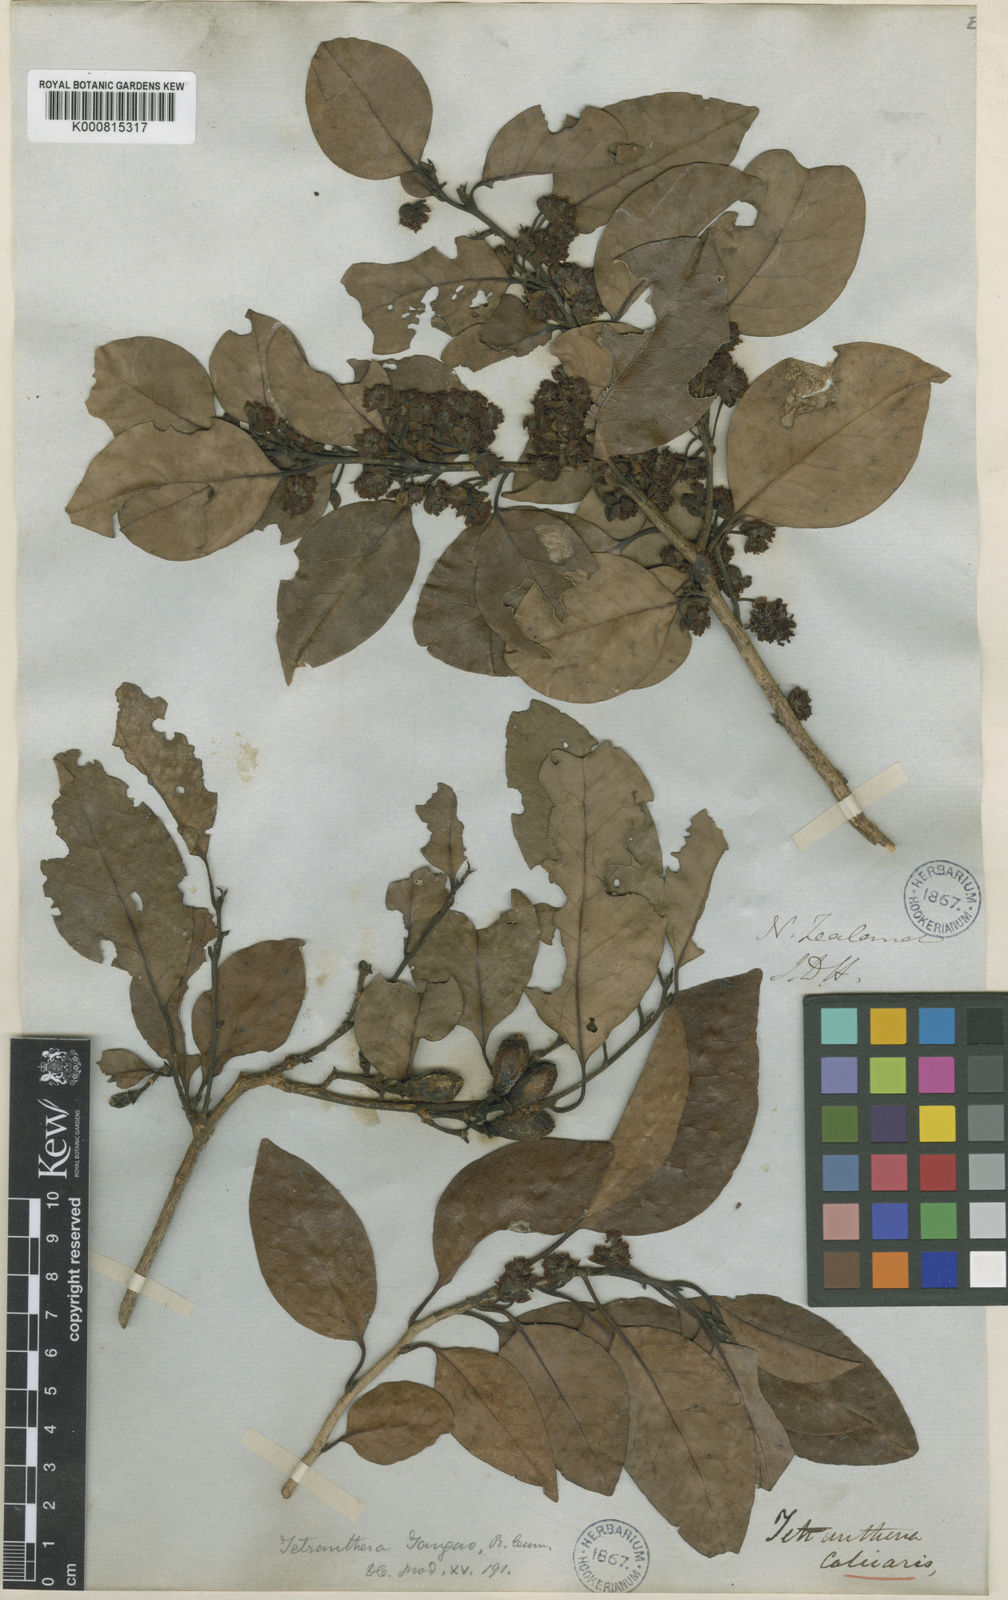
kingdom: Plantae
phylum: Tracheophyta
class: Magnoliopsida
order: Laurales
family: Lauraceae
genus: Litsea
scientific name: Litsea calicaris
